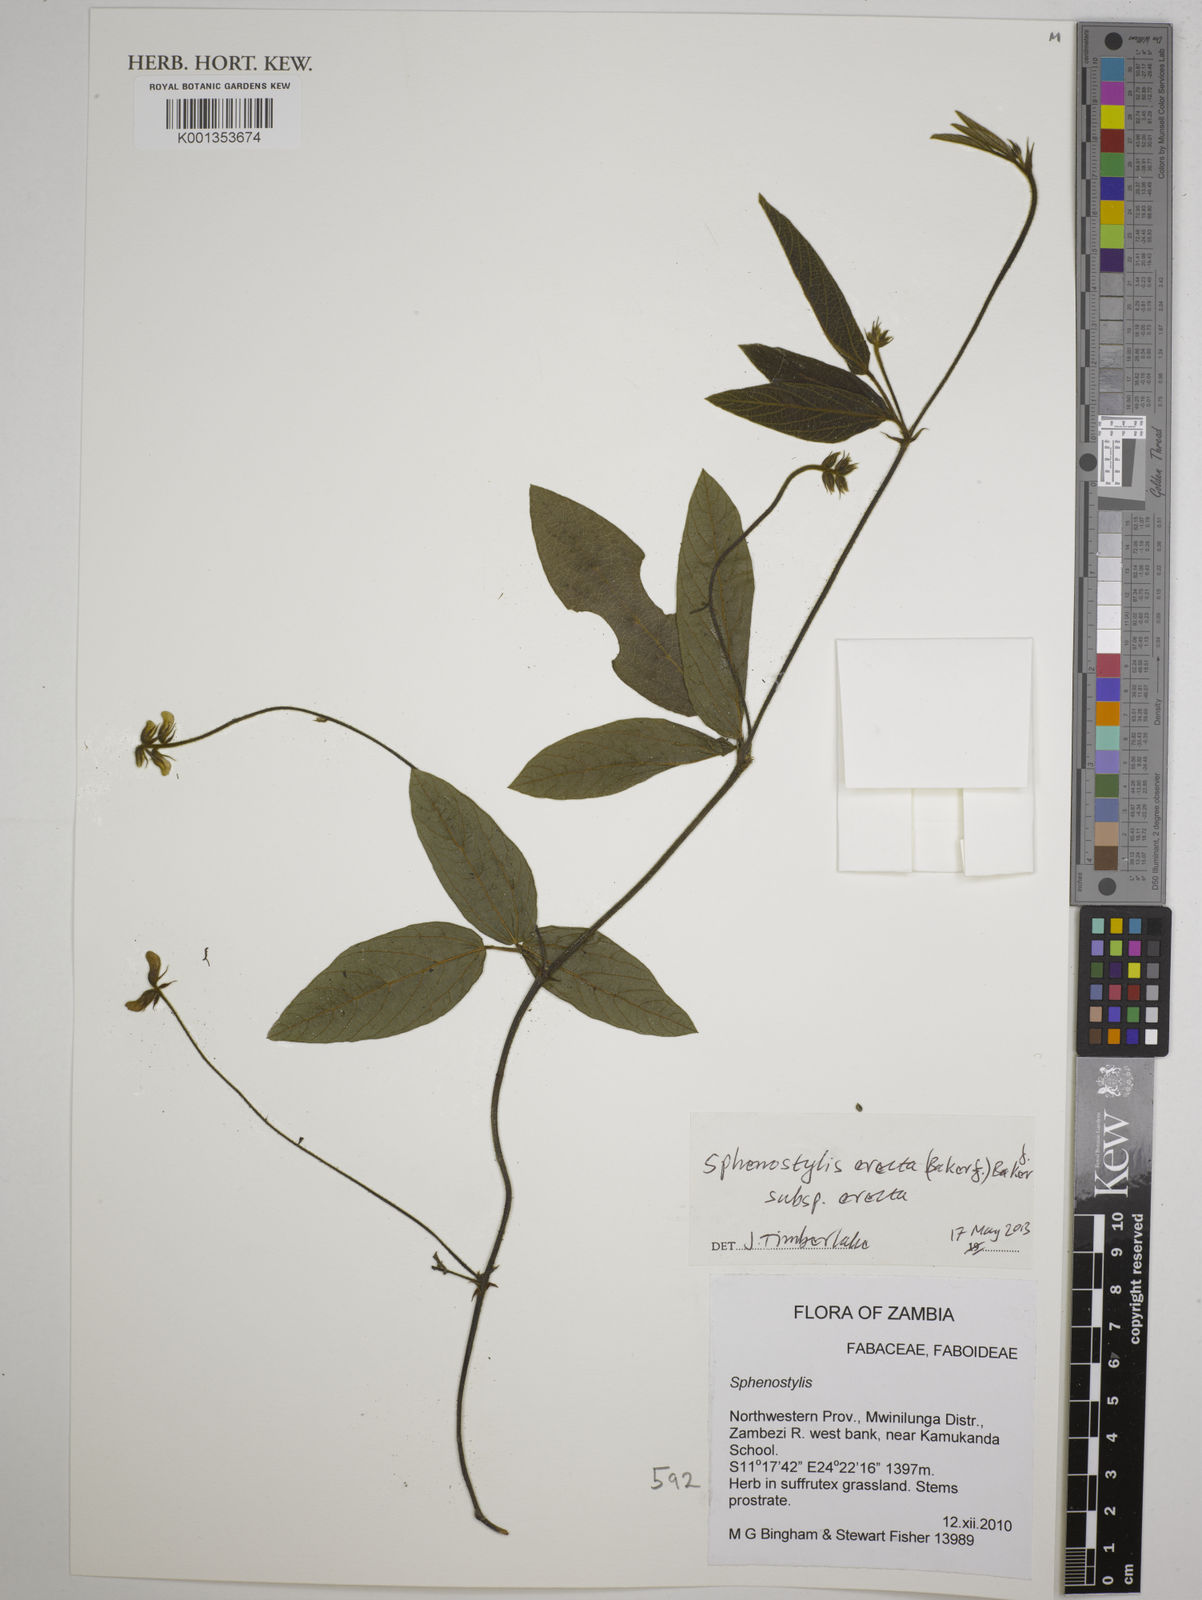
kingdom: Plantae
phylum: Tracheophyta
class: Magnoliopsida
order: Fabales
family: Fabaceae
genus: Sphenostylis
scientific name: Sphenostylis erecta
